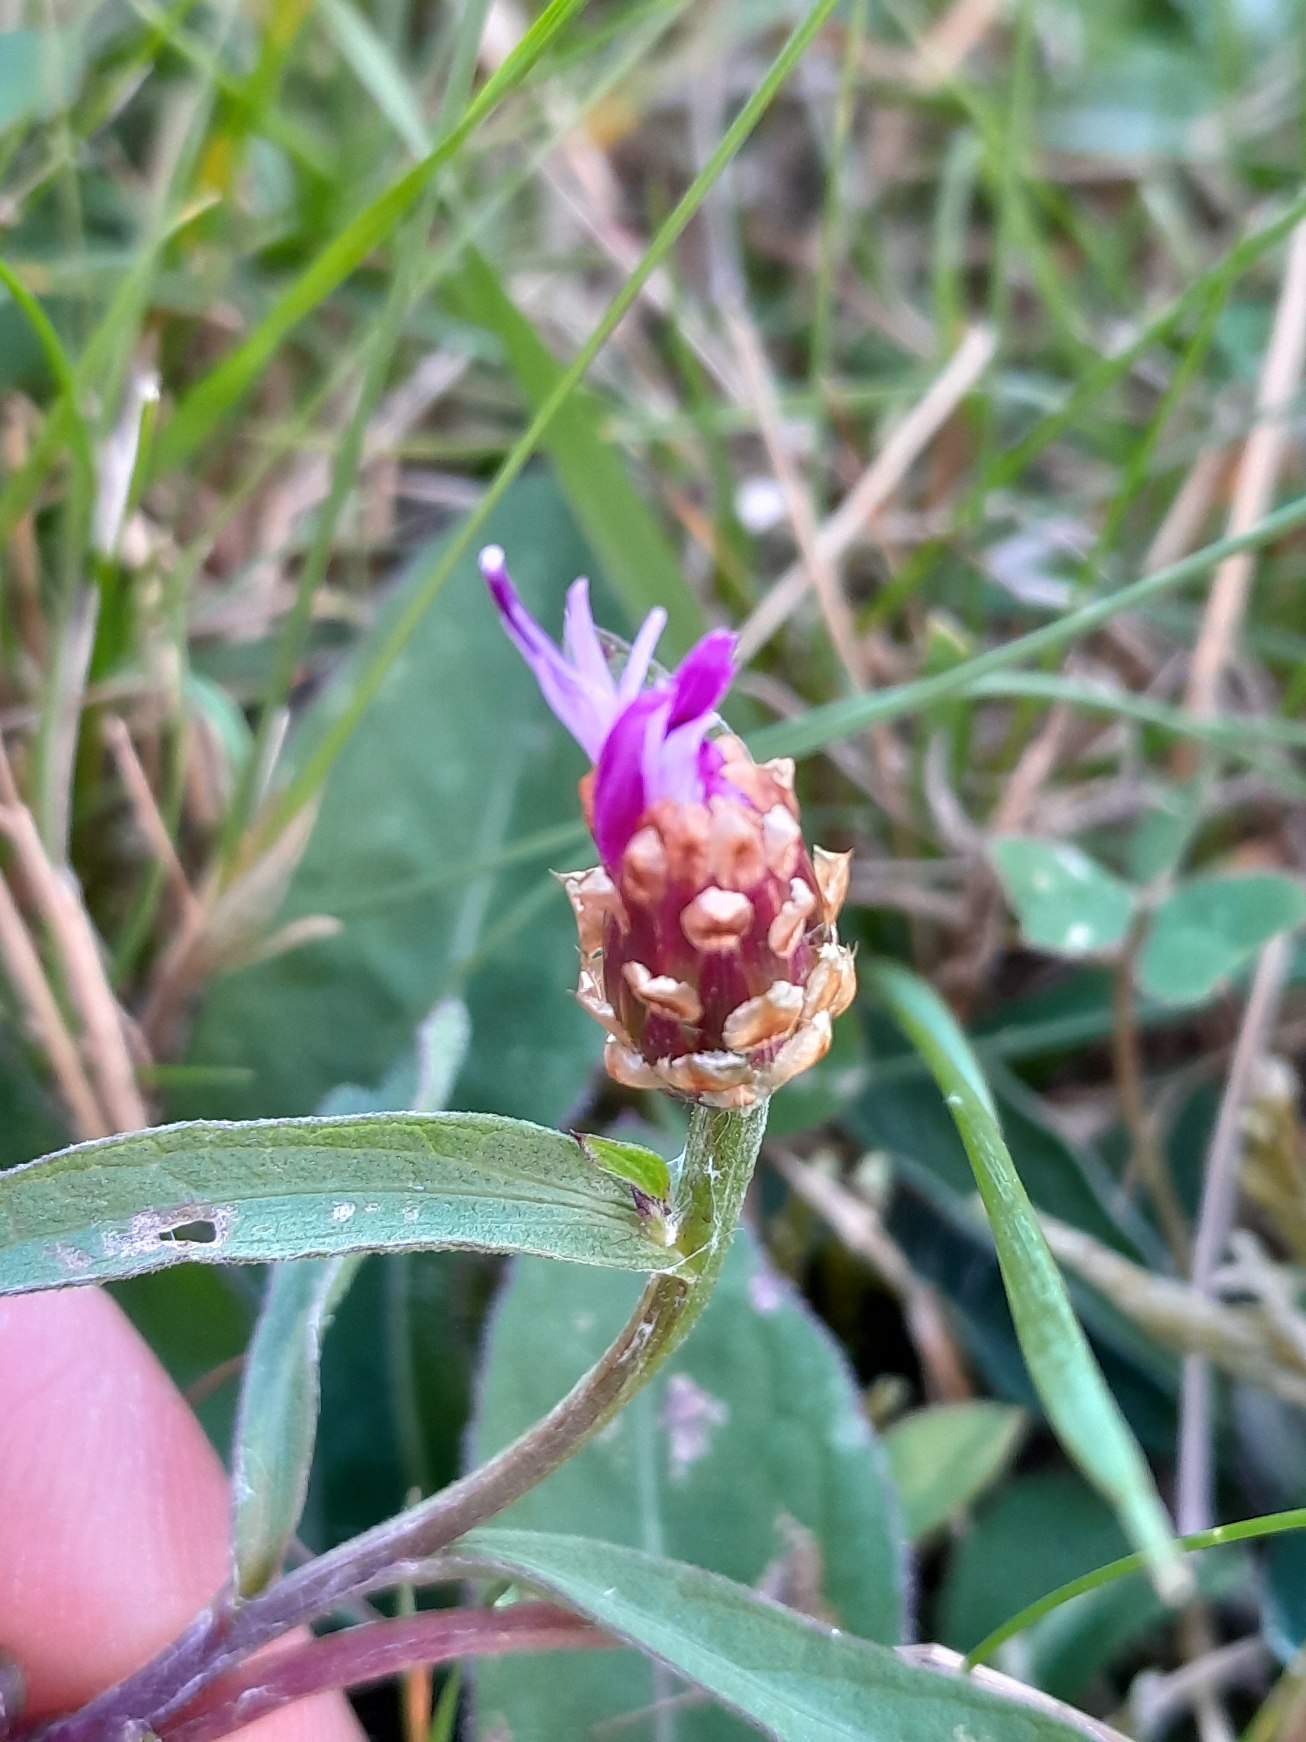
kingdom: Plantae
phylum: Tracheophyta
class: Magnoliopsida
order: Asterales
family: Asteraceae
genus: Centaurea
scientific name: Centaurea jacea
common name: Almindelig knopurt
